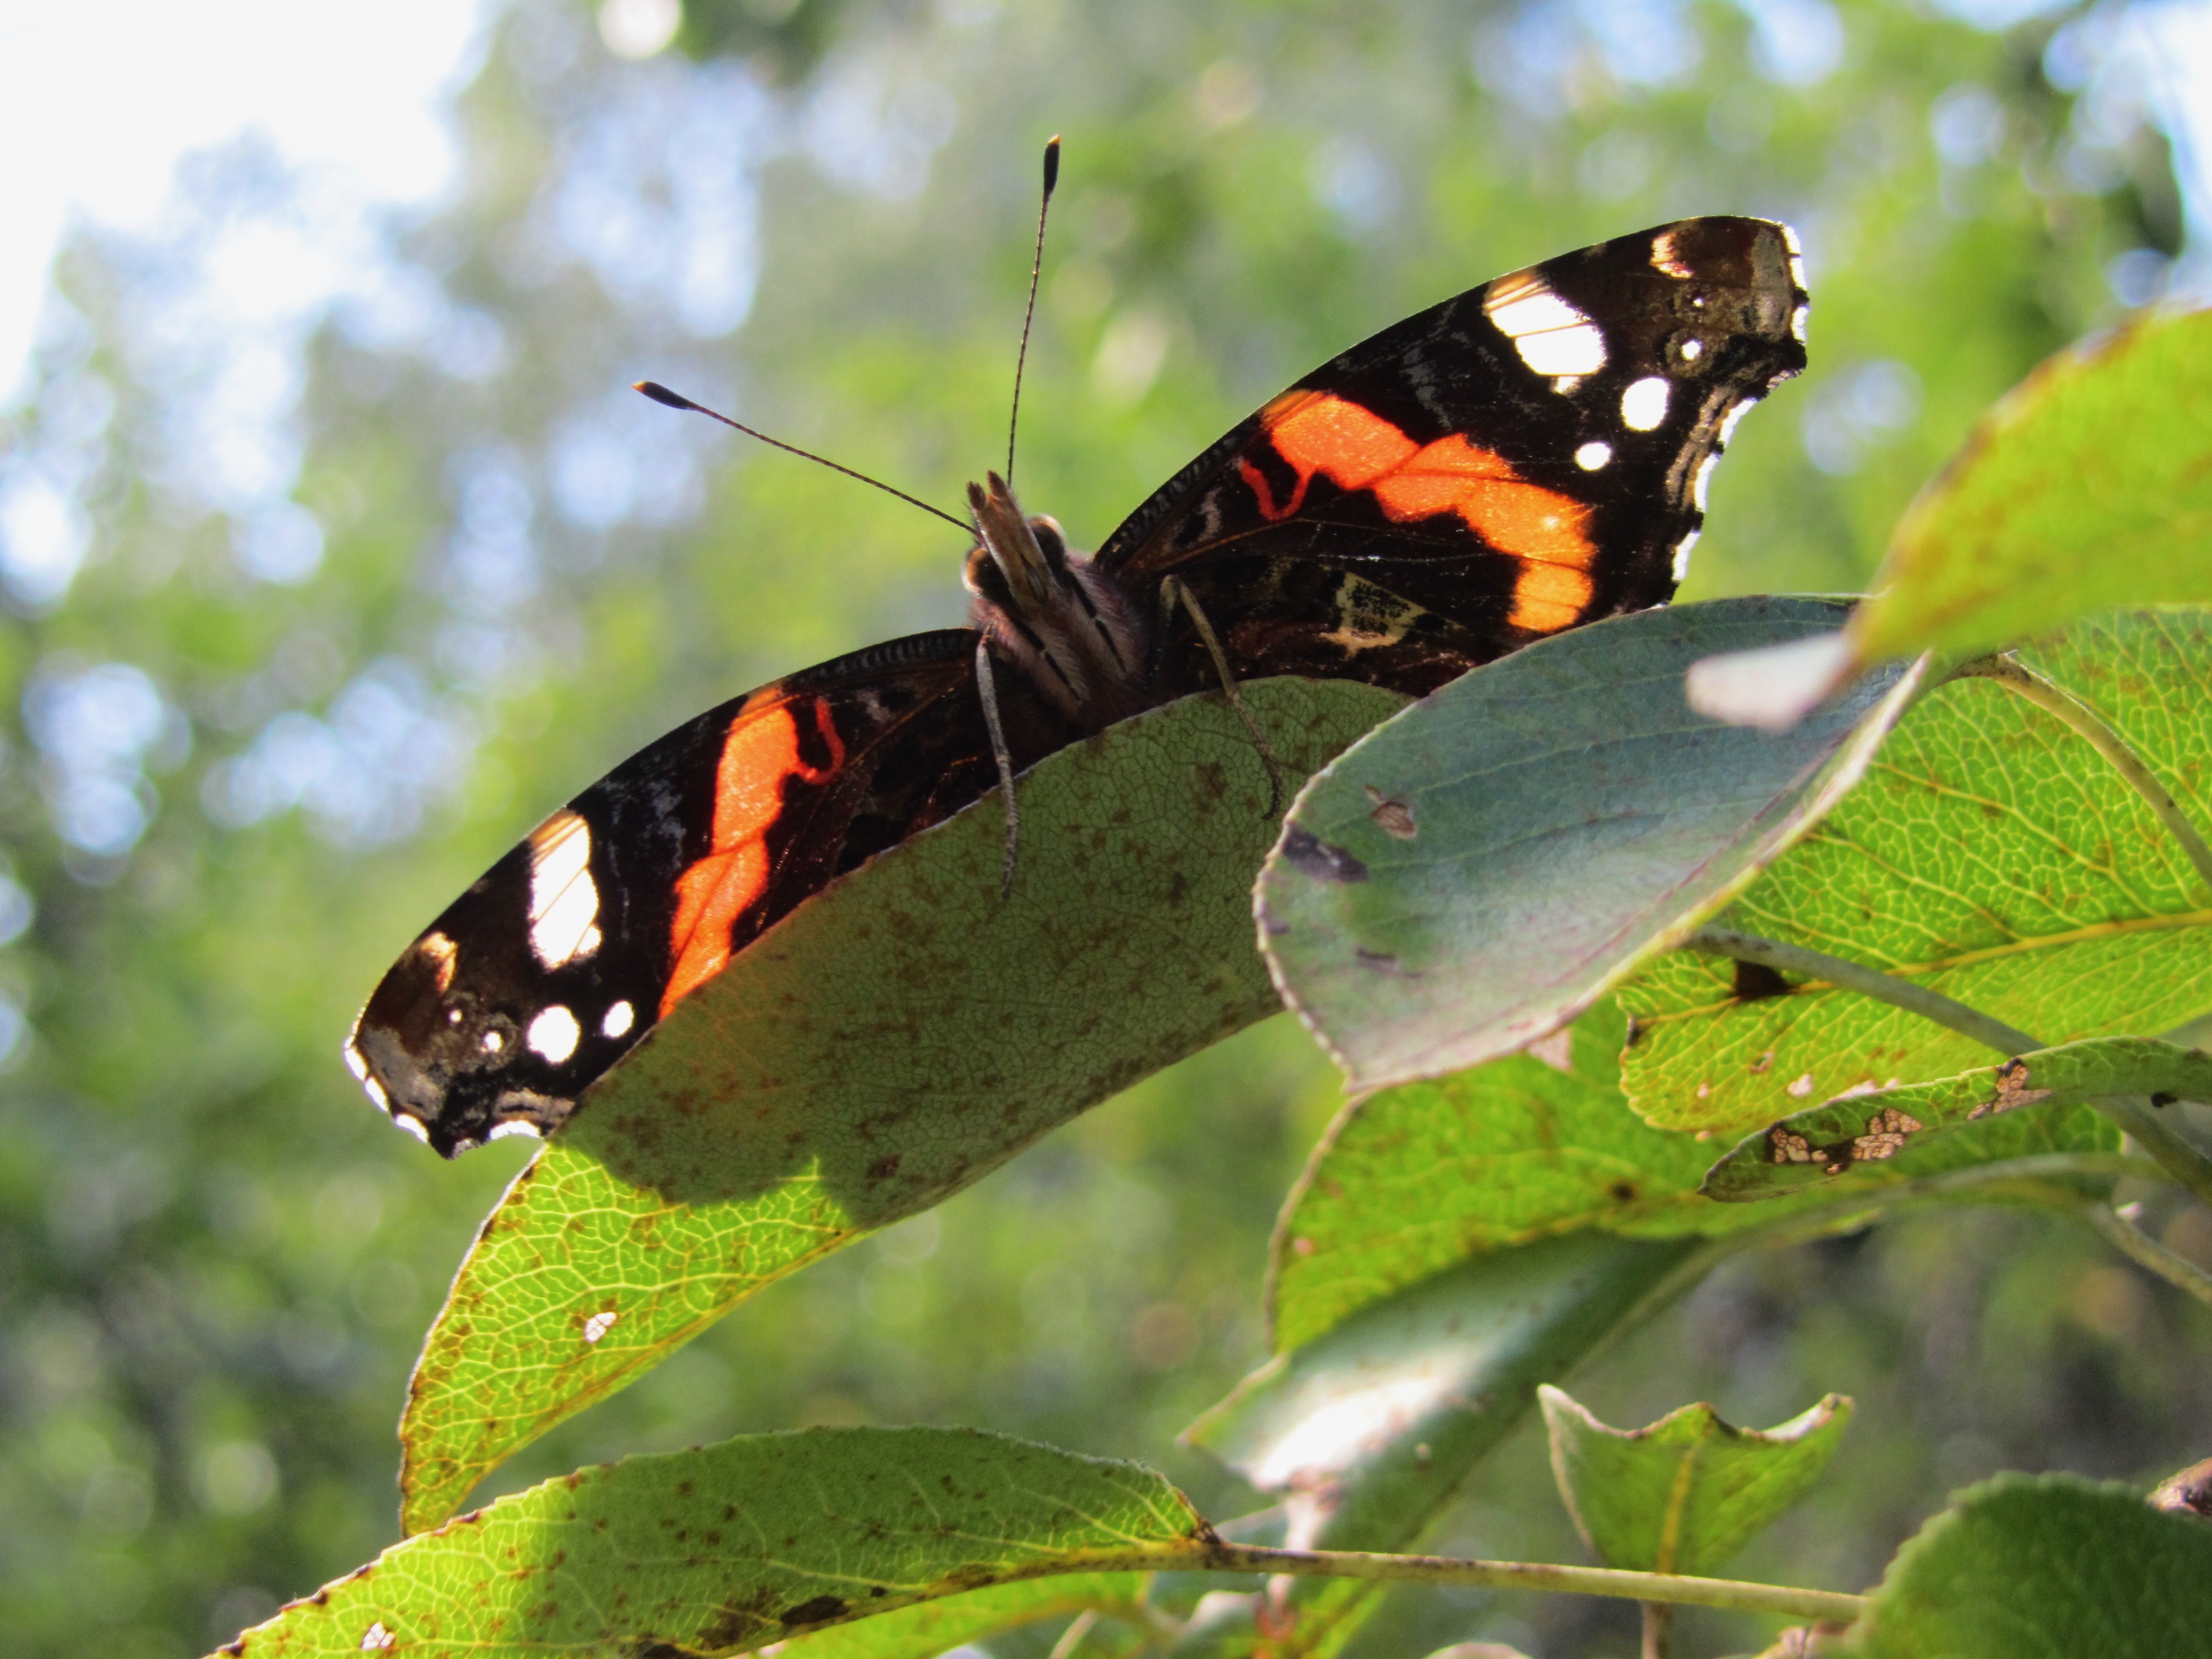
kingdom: Animalia
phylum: Arthropoda
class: Insecta
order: Lepidoptera
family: Nymphalidae
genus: Vanessa
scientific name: Vanessa atalanta
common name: Red admiral
